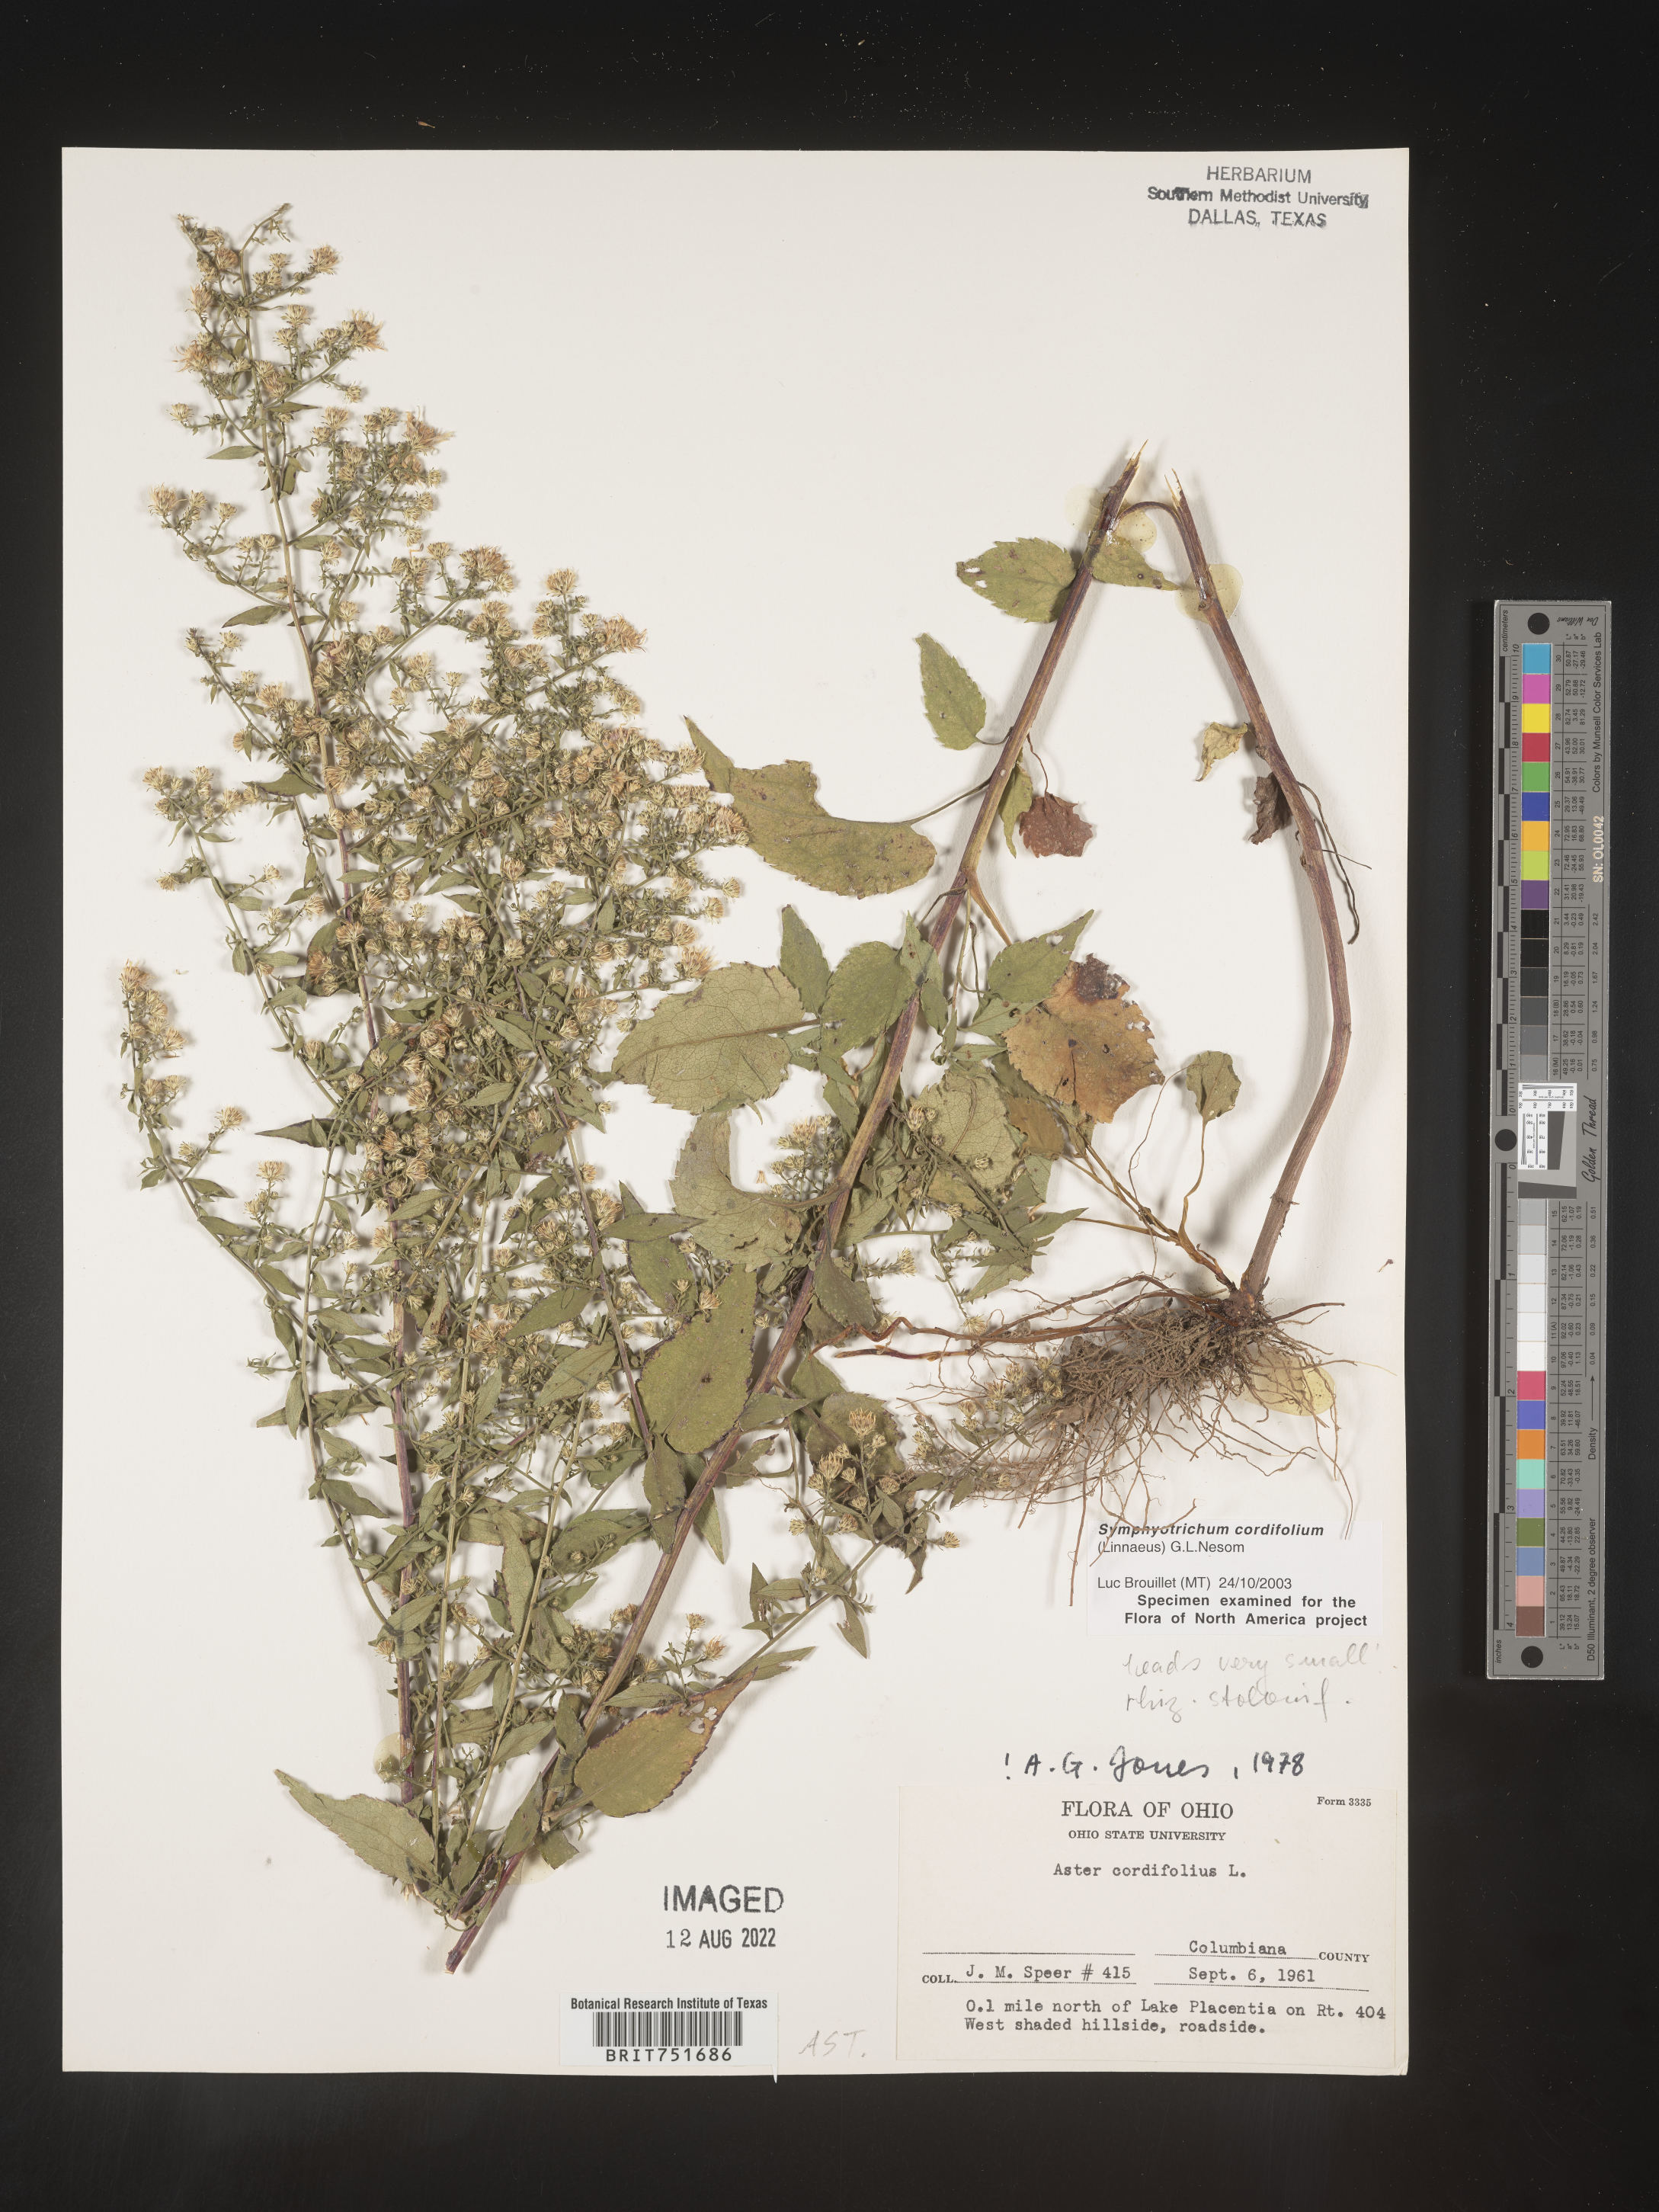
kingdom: Plantae
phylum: Tracheophyta
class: Magnoliopsida
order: Asterales
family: Asteraceae
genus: Symphyotrichum
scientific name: Symphyotrichum cordifolium
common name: Beeweed
